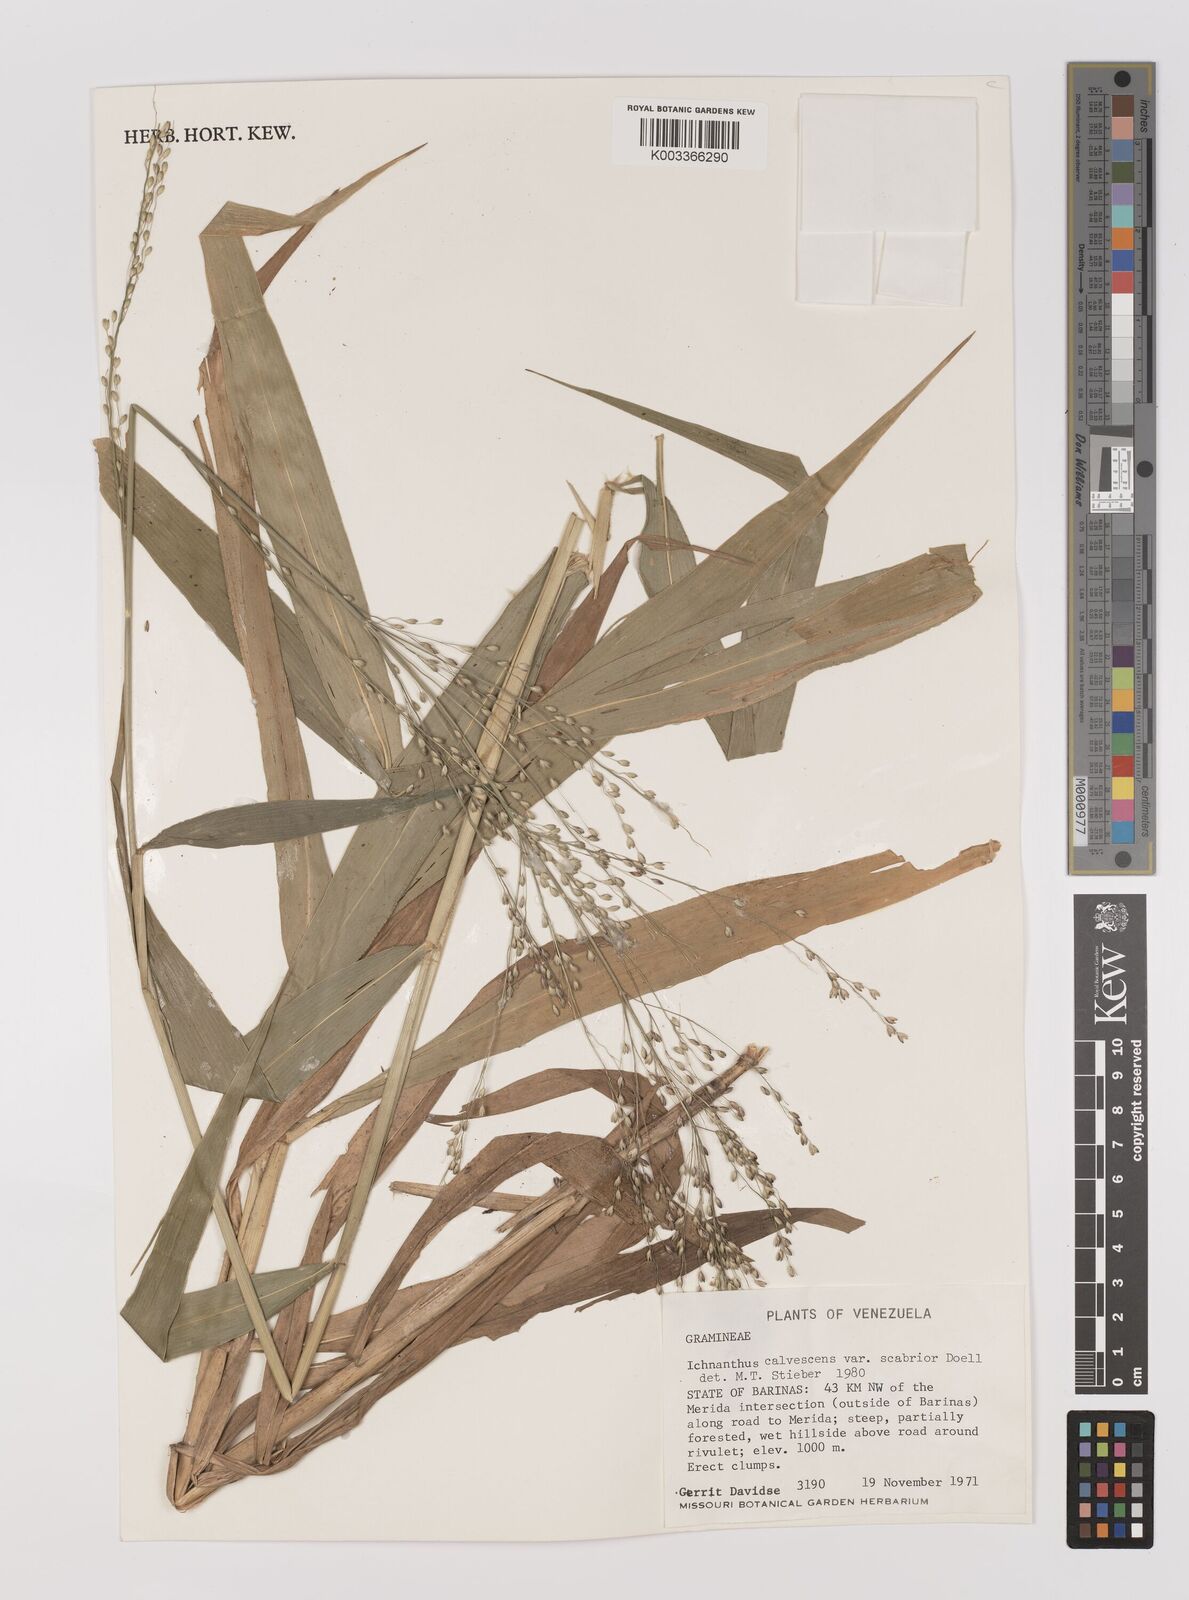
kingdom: Plantae
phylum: Tracheophyta
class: Liliopsida
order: Poales
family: Poaceae
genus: Ichnanthus
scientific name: Ichnanthus calvescens
